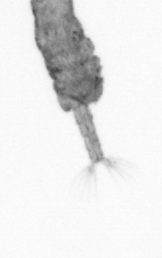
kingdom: Animalia
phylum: Arthropoda
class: Copepoda
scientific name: Copepoda
